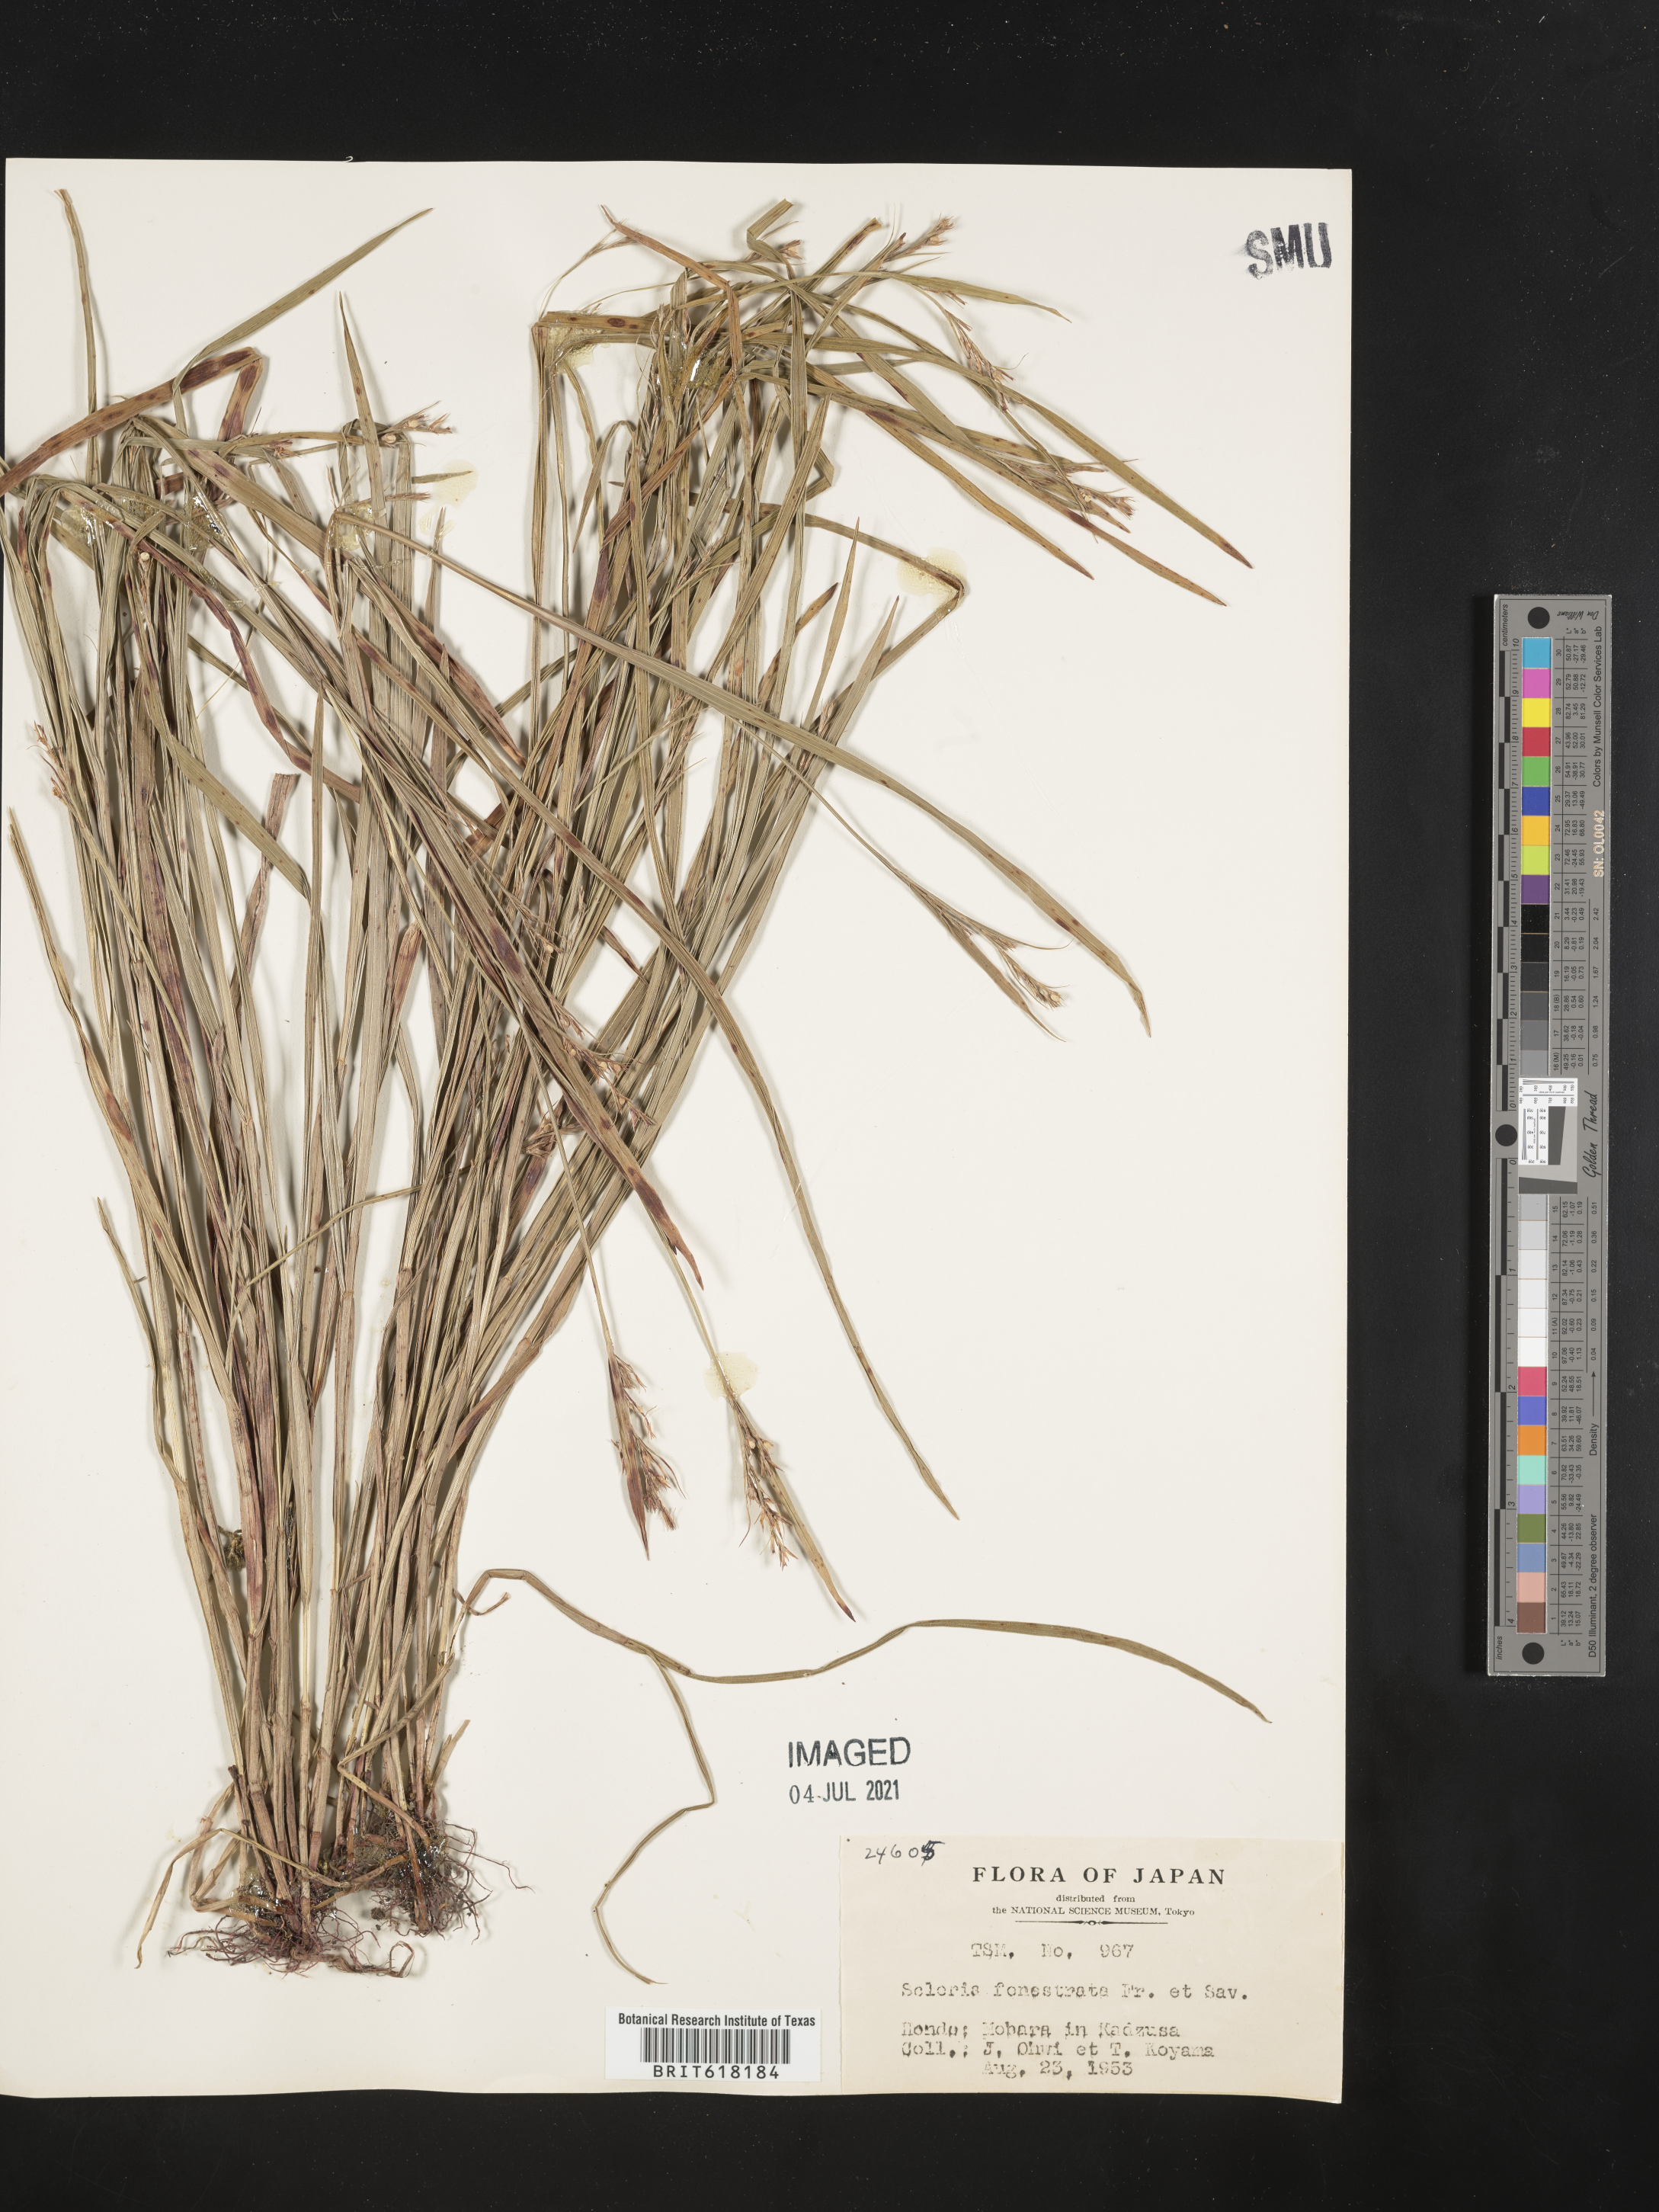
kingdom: Plantae
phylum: Tracheophyta
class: Liliopsida
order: Poales
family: Cyperaceae
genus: Scleria
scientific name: Scleria parvula
